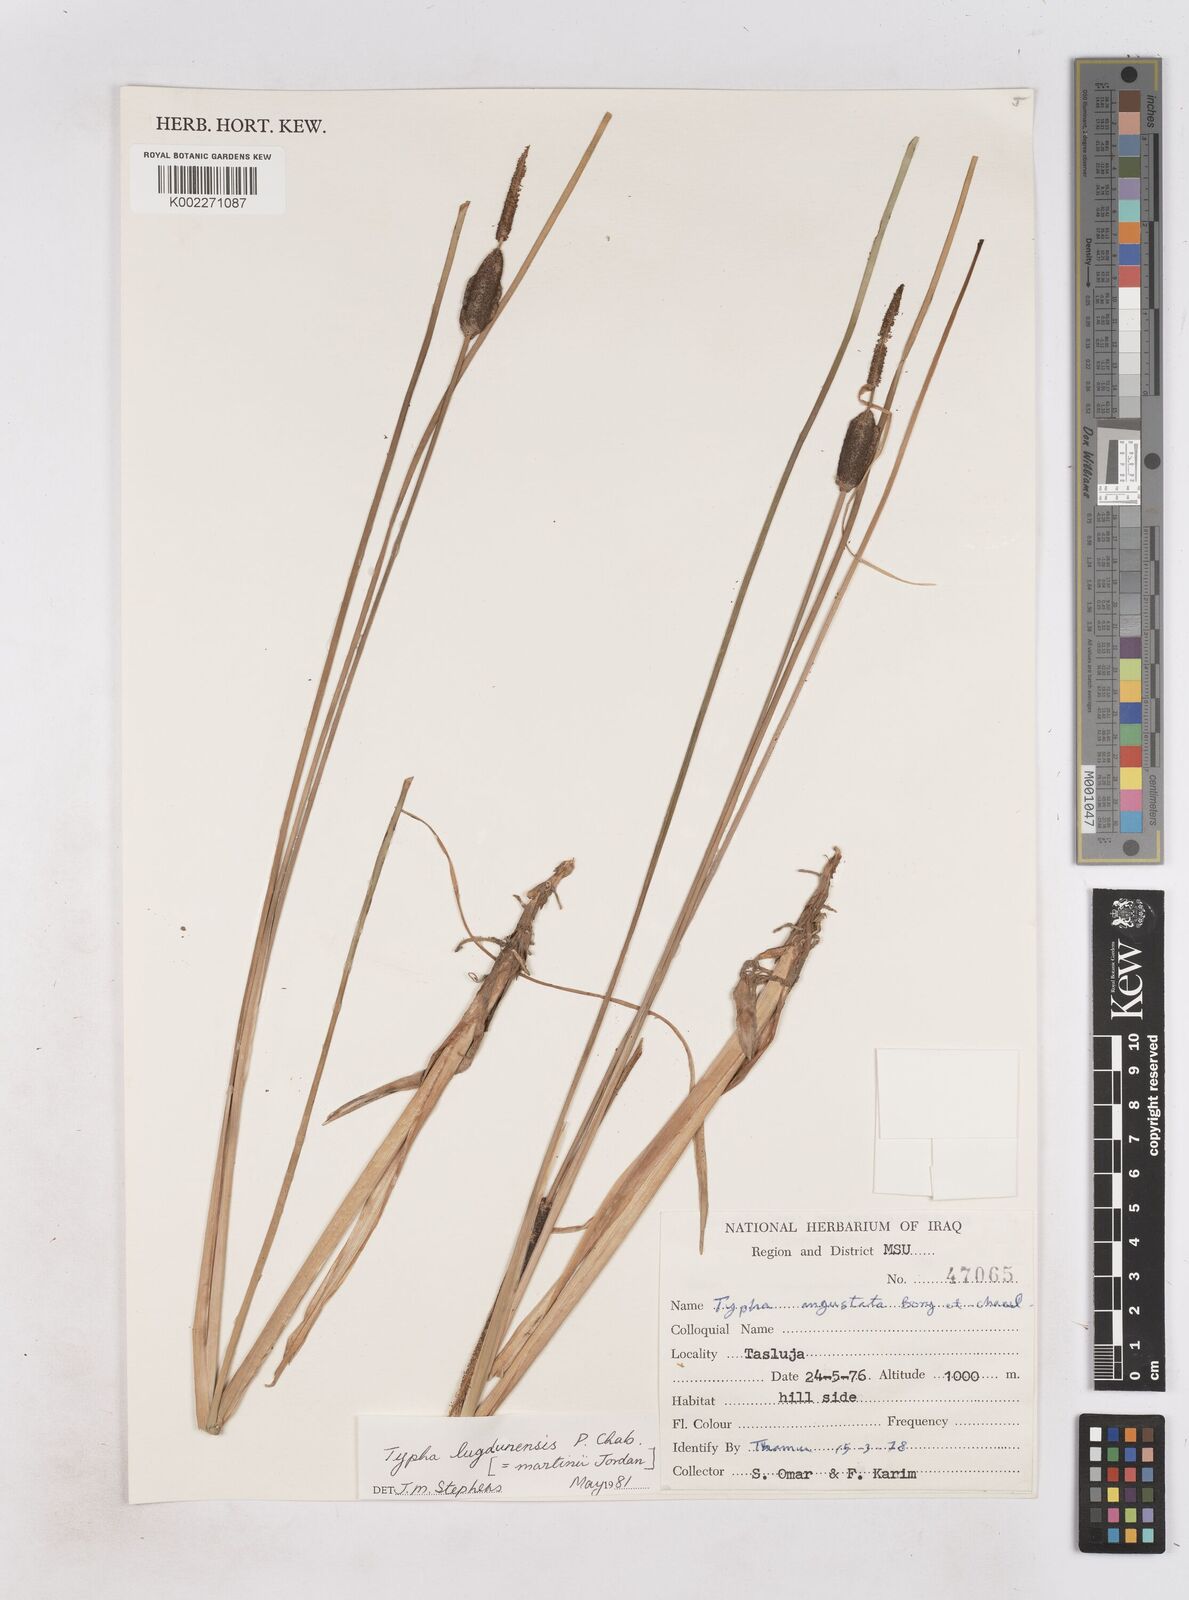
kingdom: Plantae
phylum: Tracheophyta
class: Liliopsida
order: Poales
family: Typhaceae
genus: Typha
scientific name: Typha lugdunensis
